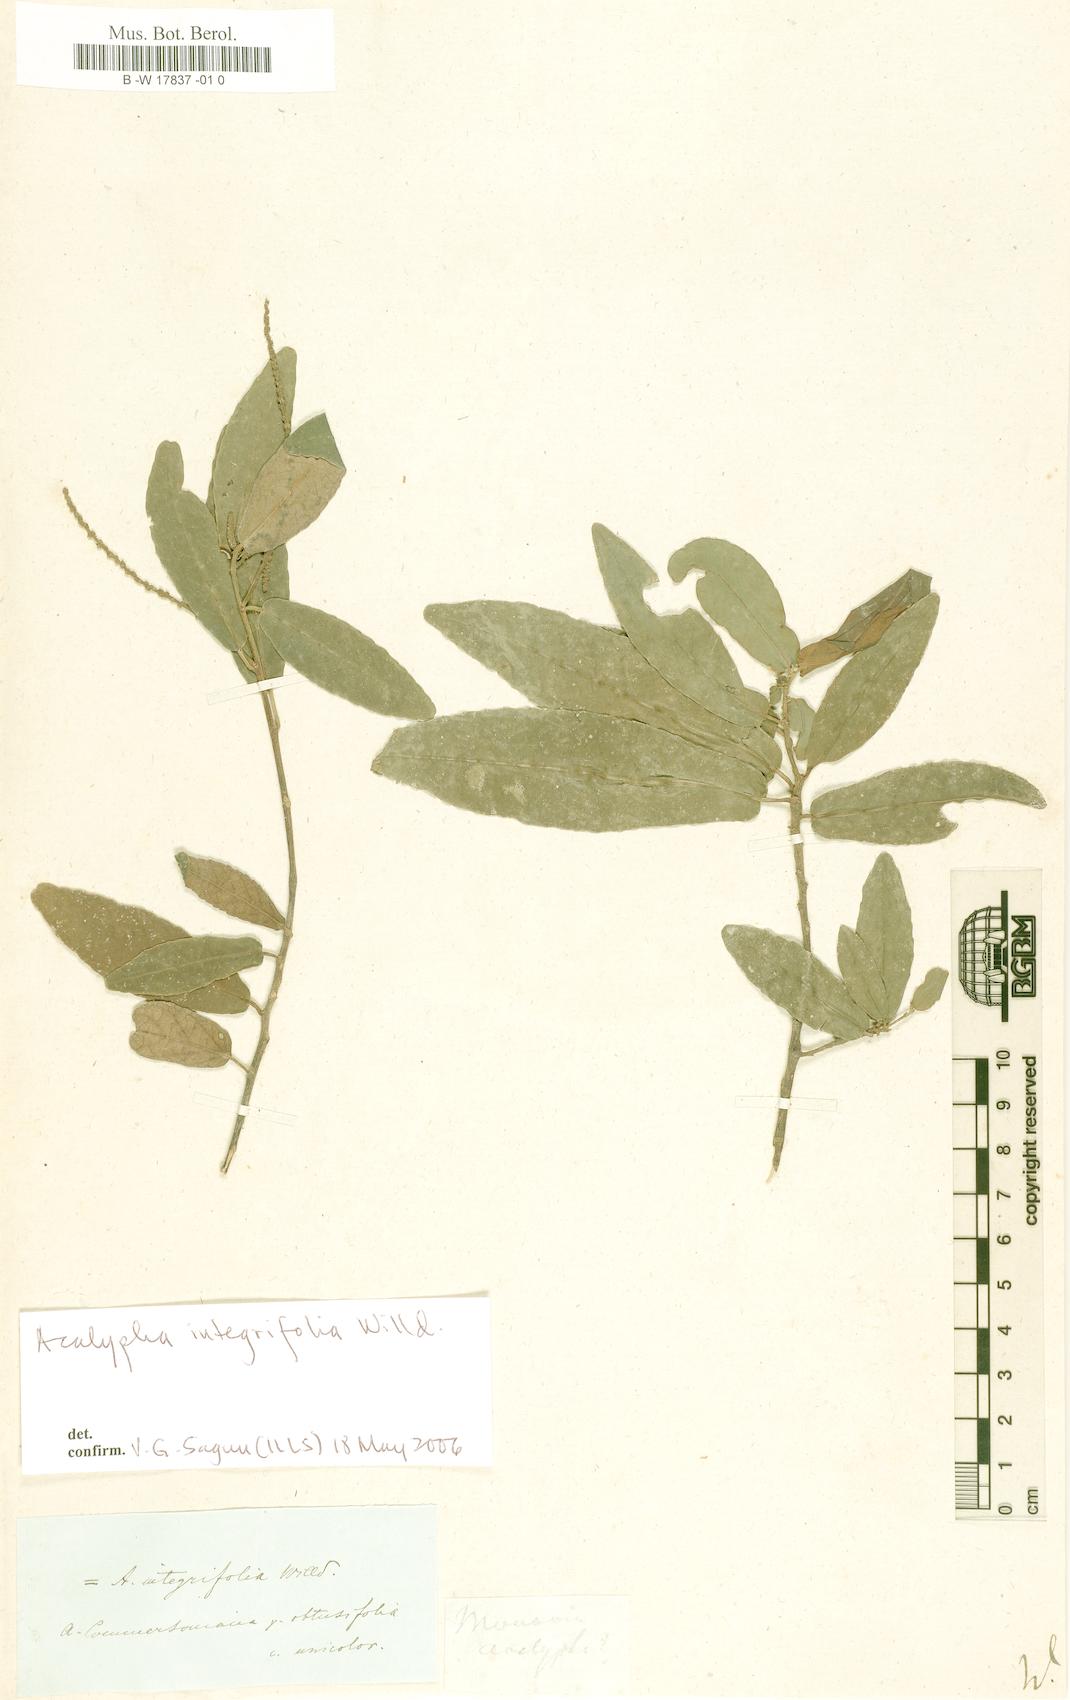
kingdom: Plantae
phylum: Tracheophyta
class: Magnoliopsida
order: Malpighiales
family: Euphorbiaceae
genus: Acalypha
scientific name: Acalypha
